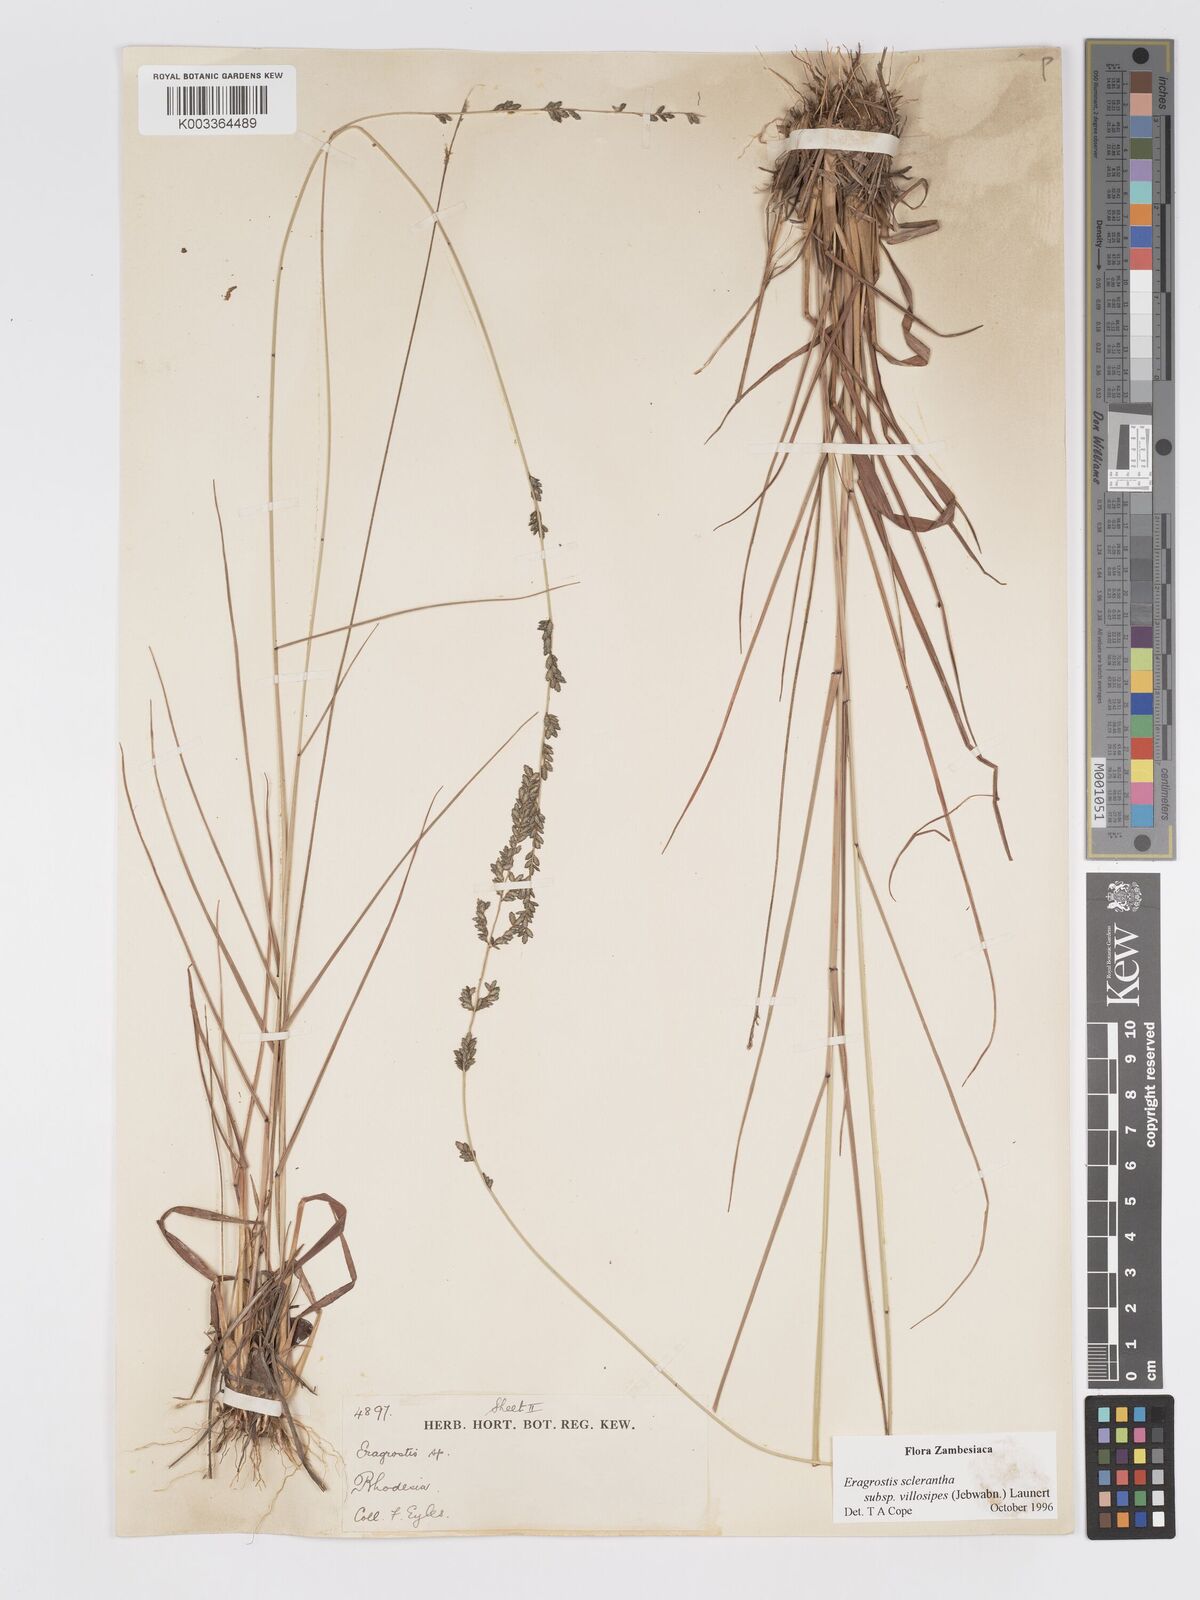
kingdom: Plantae
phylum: Tracheophyta
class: Liliopsida
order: Poales
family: Poaceae
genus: Eragrostis
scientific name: Eragrostis sclerantha
